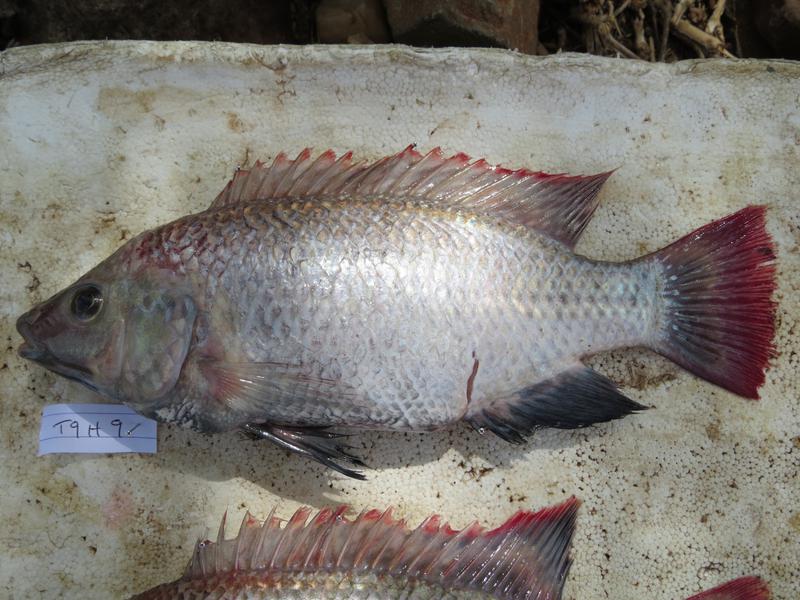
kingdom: Animalia
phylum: Chordata
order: Perciformes
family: Cichlidae
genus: Oreochromis
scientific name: Oreochromis rukwaensis
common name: Lake rukwa tilapia
